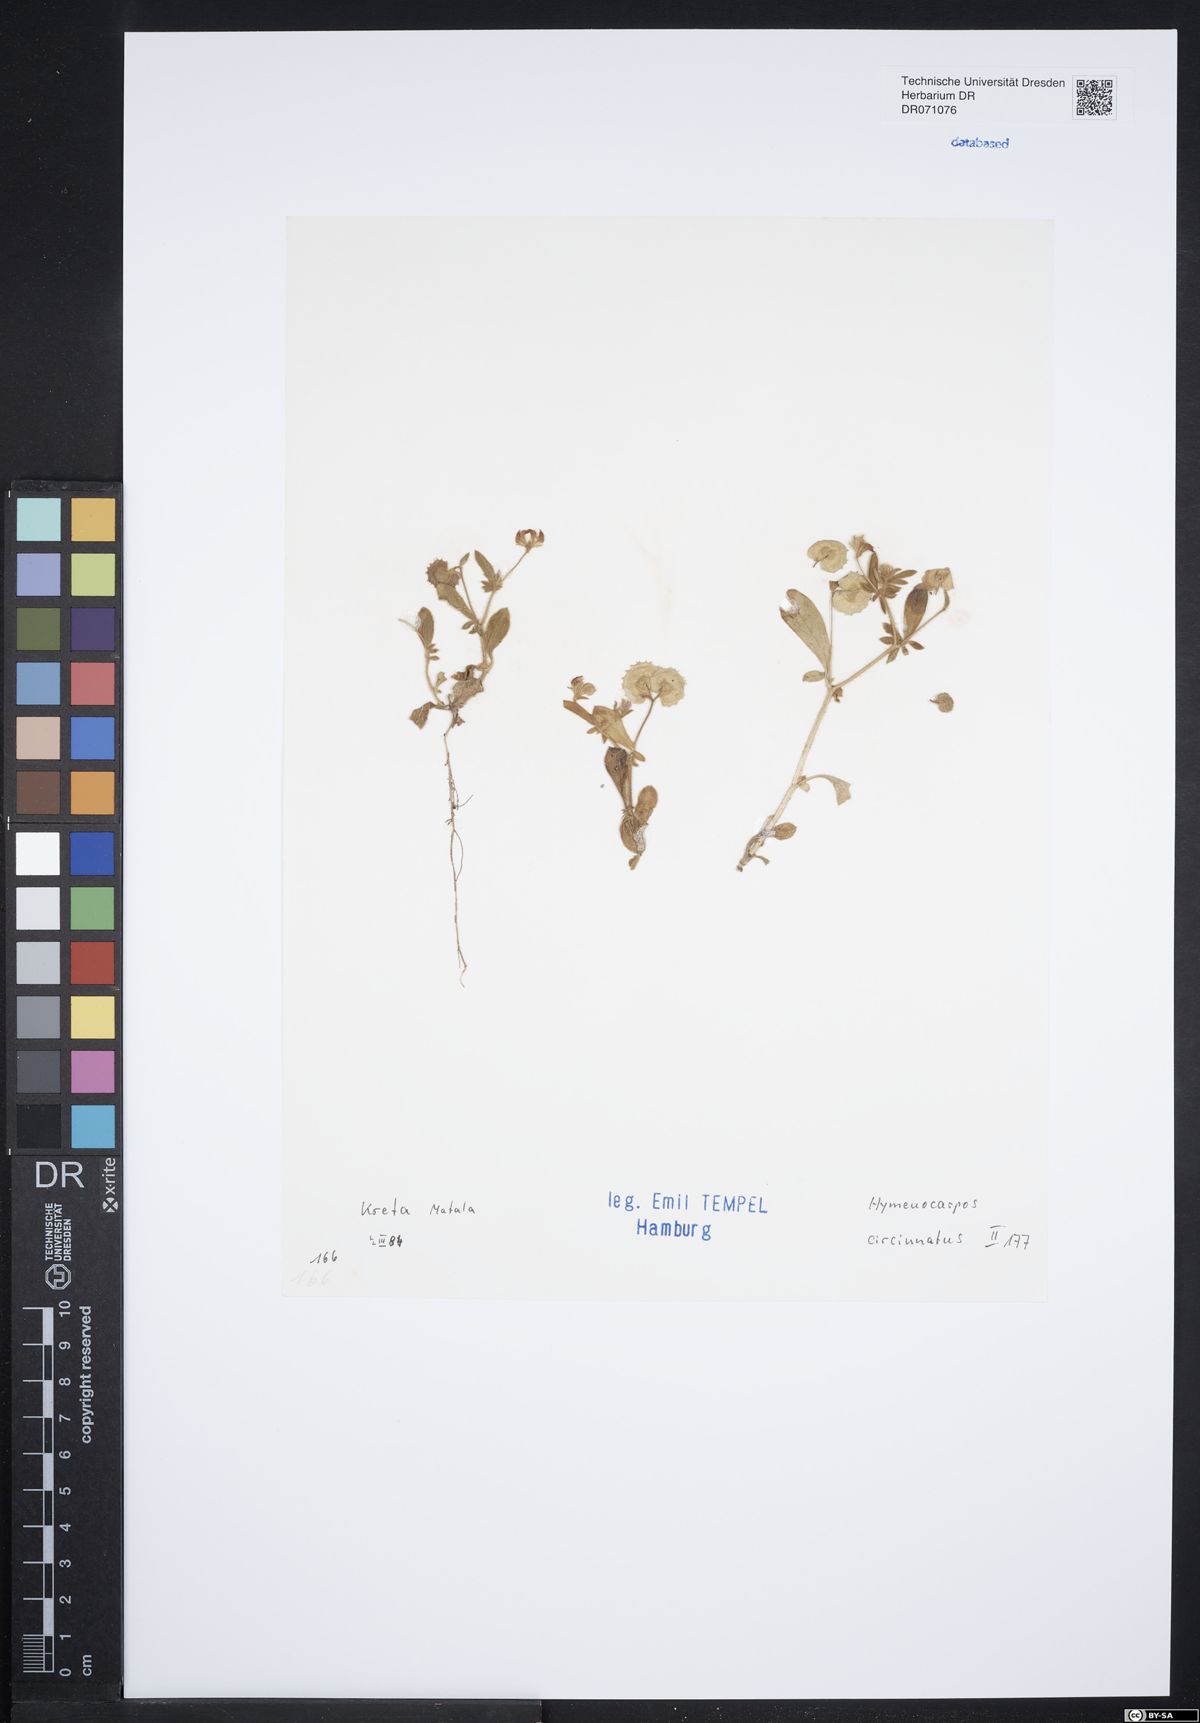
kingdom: Plantae
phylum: Tracheophyta
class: Magnoliopsida
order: Fabales
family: Fabaceae
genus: Anthyllis
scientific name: Anthyllis circinnata
